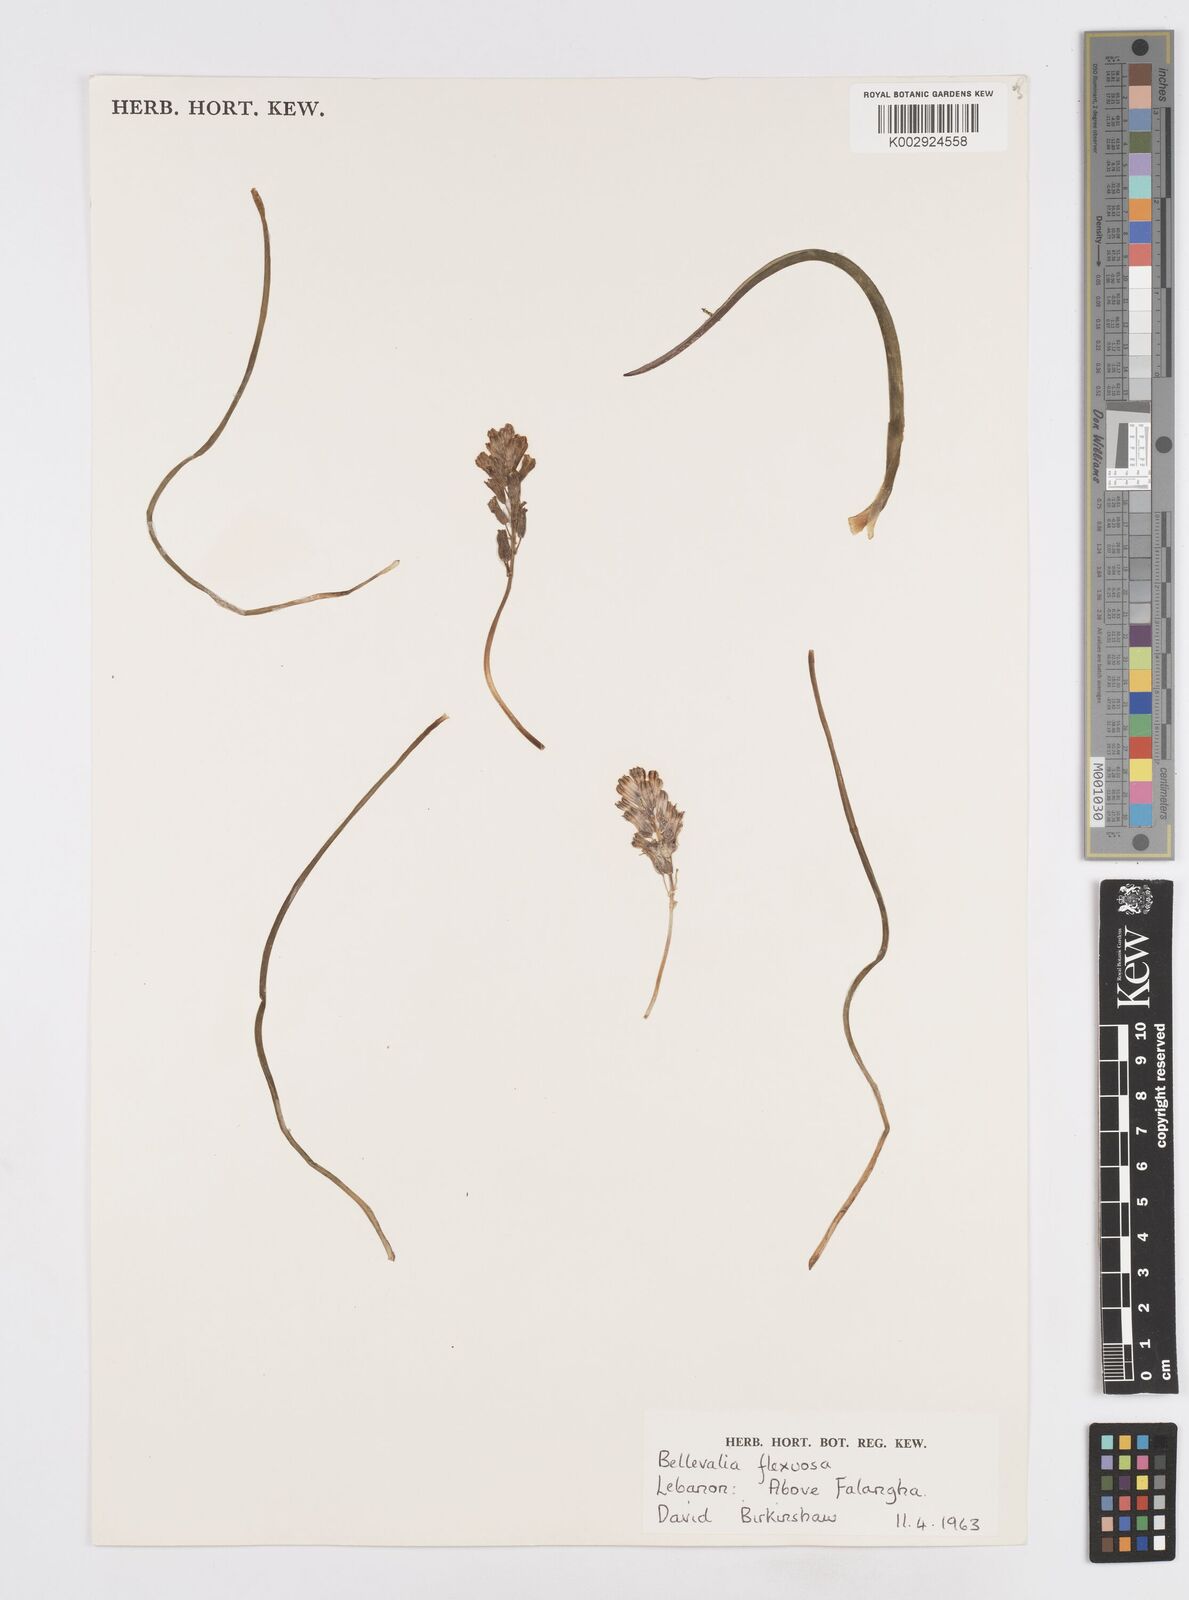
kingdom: Plantae
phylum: Tracheophyta
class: Liliopsida
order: Asparagales
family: Asparagaceae
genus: Bellevalia
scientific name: Bellevalia flexuosa
